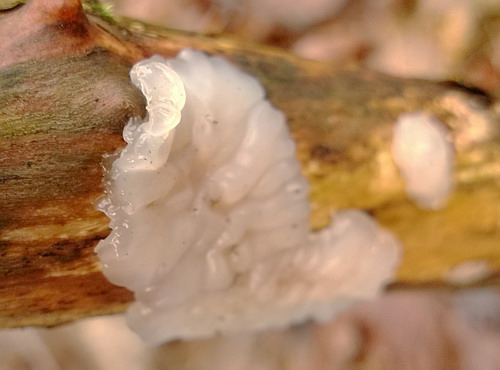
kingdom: Fungi
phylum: Basidiomycota
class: Agaricomycetes
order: Auriculariales
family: Auriculariaceae
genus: Exidia
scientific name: Exidia thuretiana
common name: hvidlig bævretop
